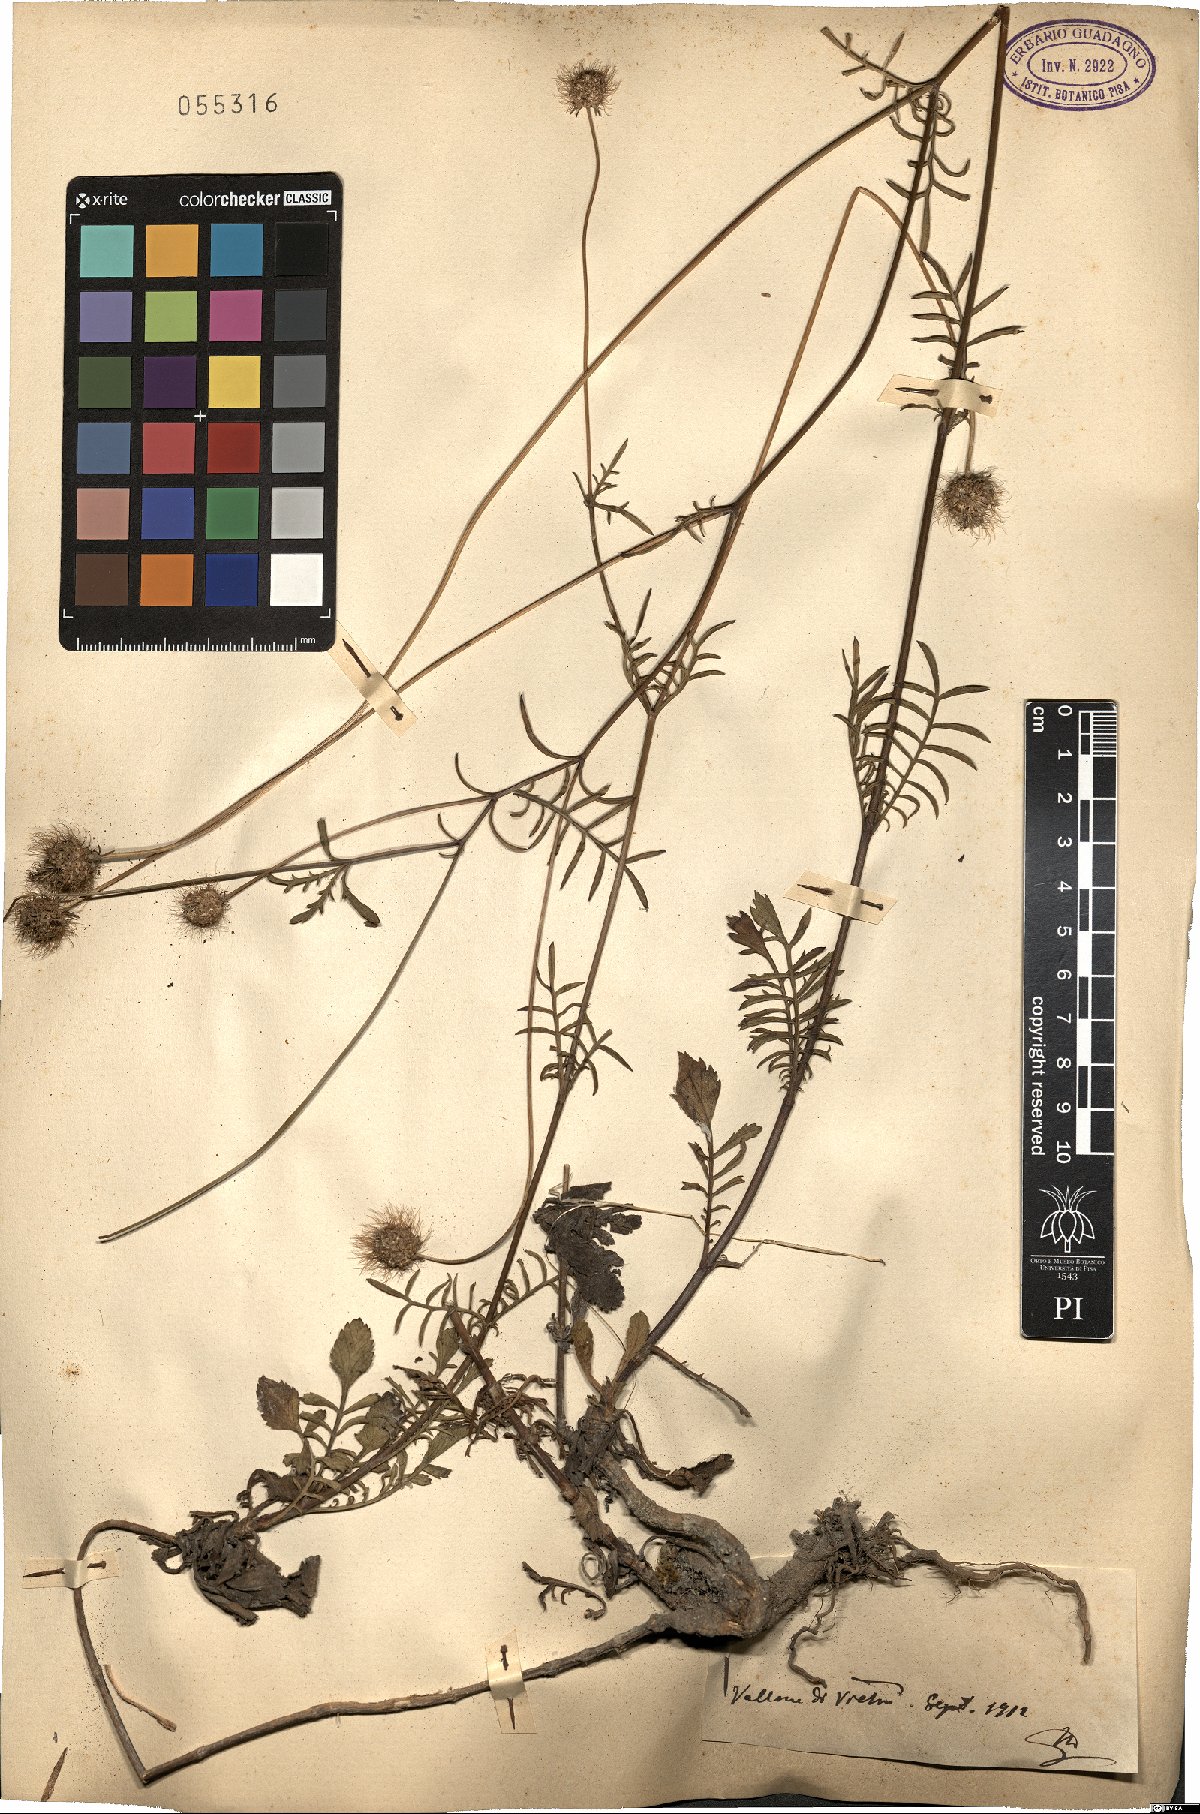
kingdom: Plantae
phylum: Tracheophyta
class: Magnoliopsida
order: Dipsacales
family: Caprifoliaceae
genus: Scabiosa
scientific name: Scabiosa
